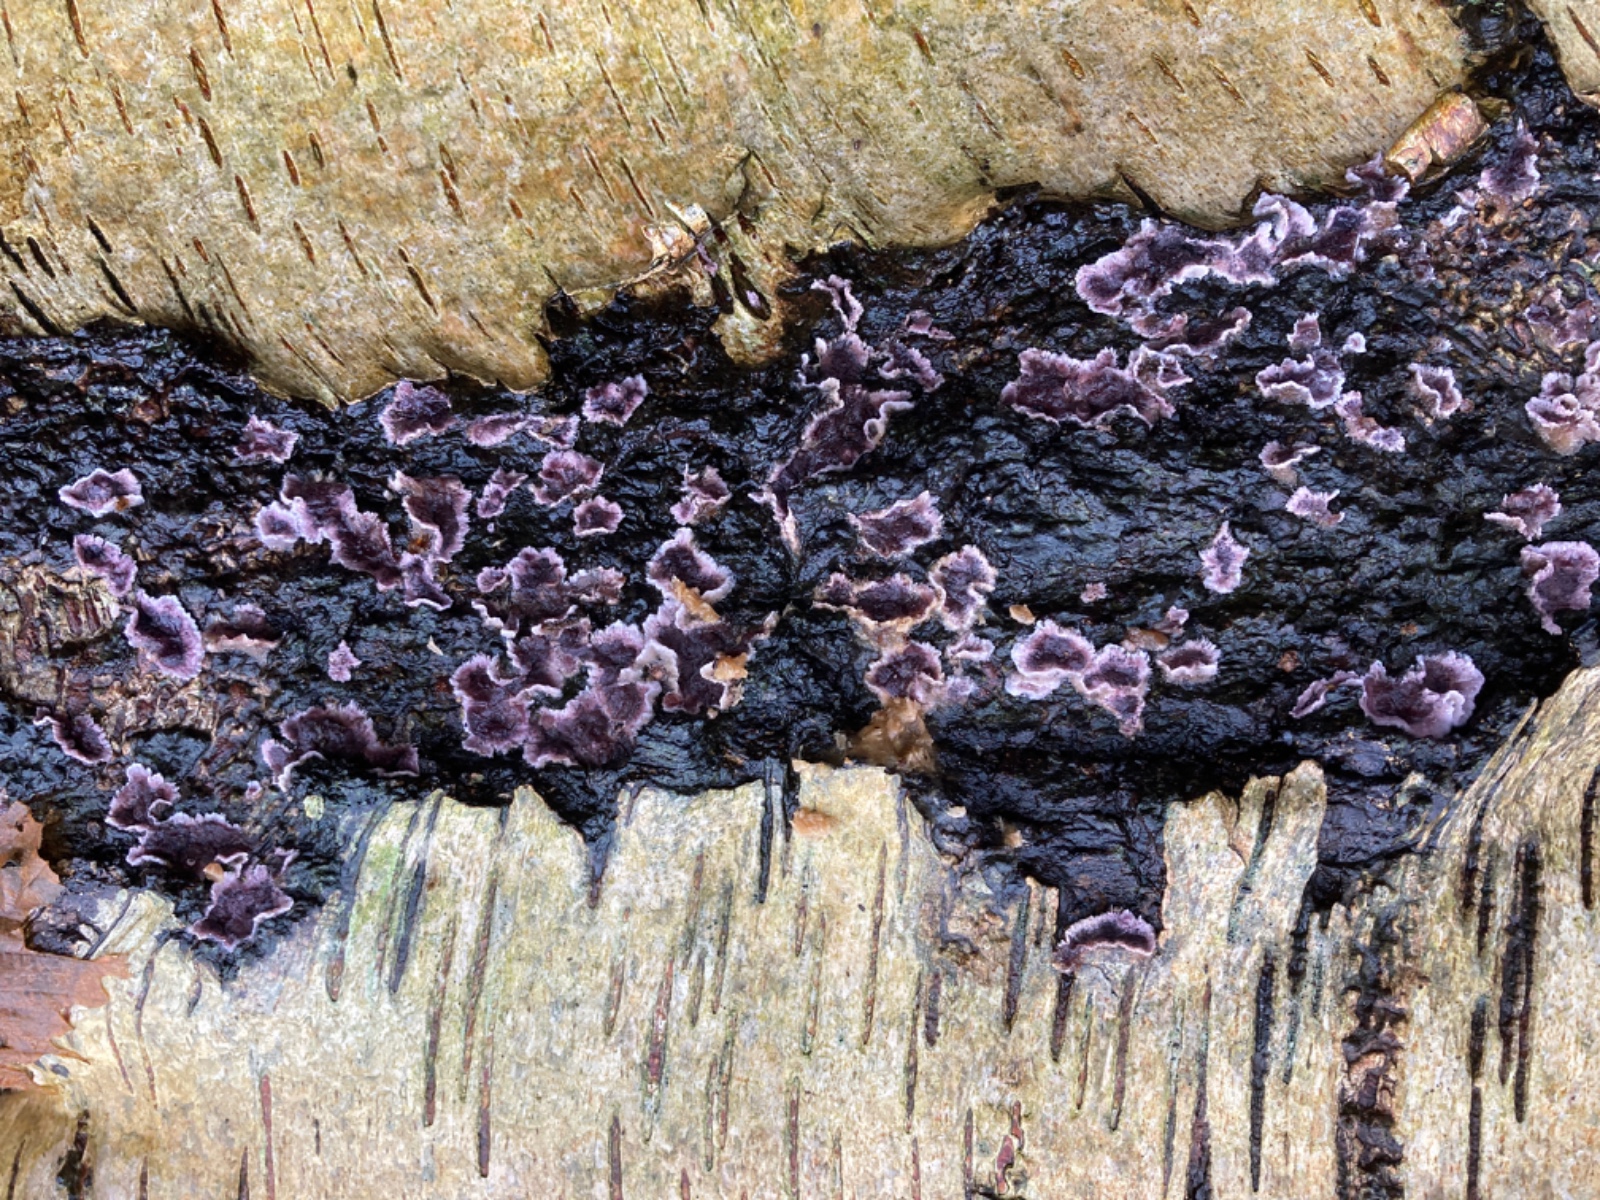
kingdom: Fungi
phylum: Basidiomycota
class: Agaricomycetes
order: Agaricales
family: Cyphellaceae
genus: Chondrostereum
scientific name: Chondrostereum purpureum
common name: purpurlædersvamp
